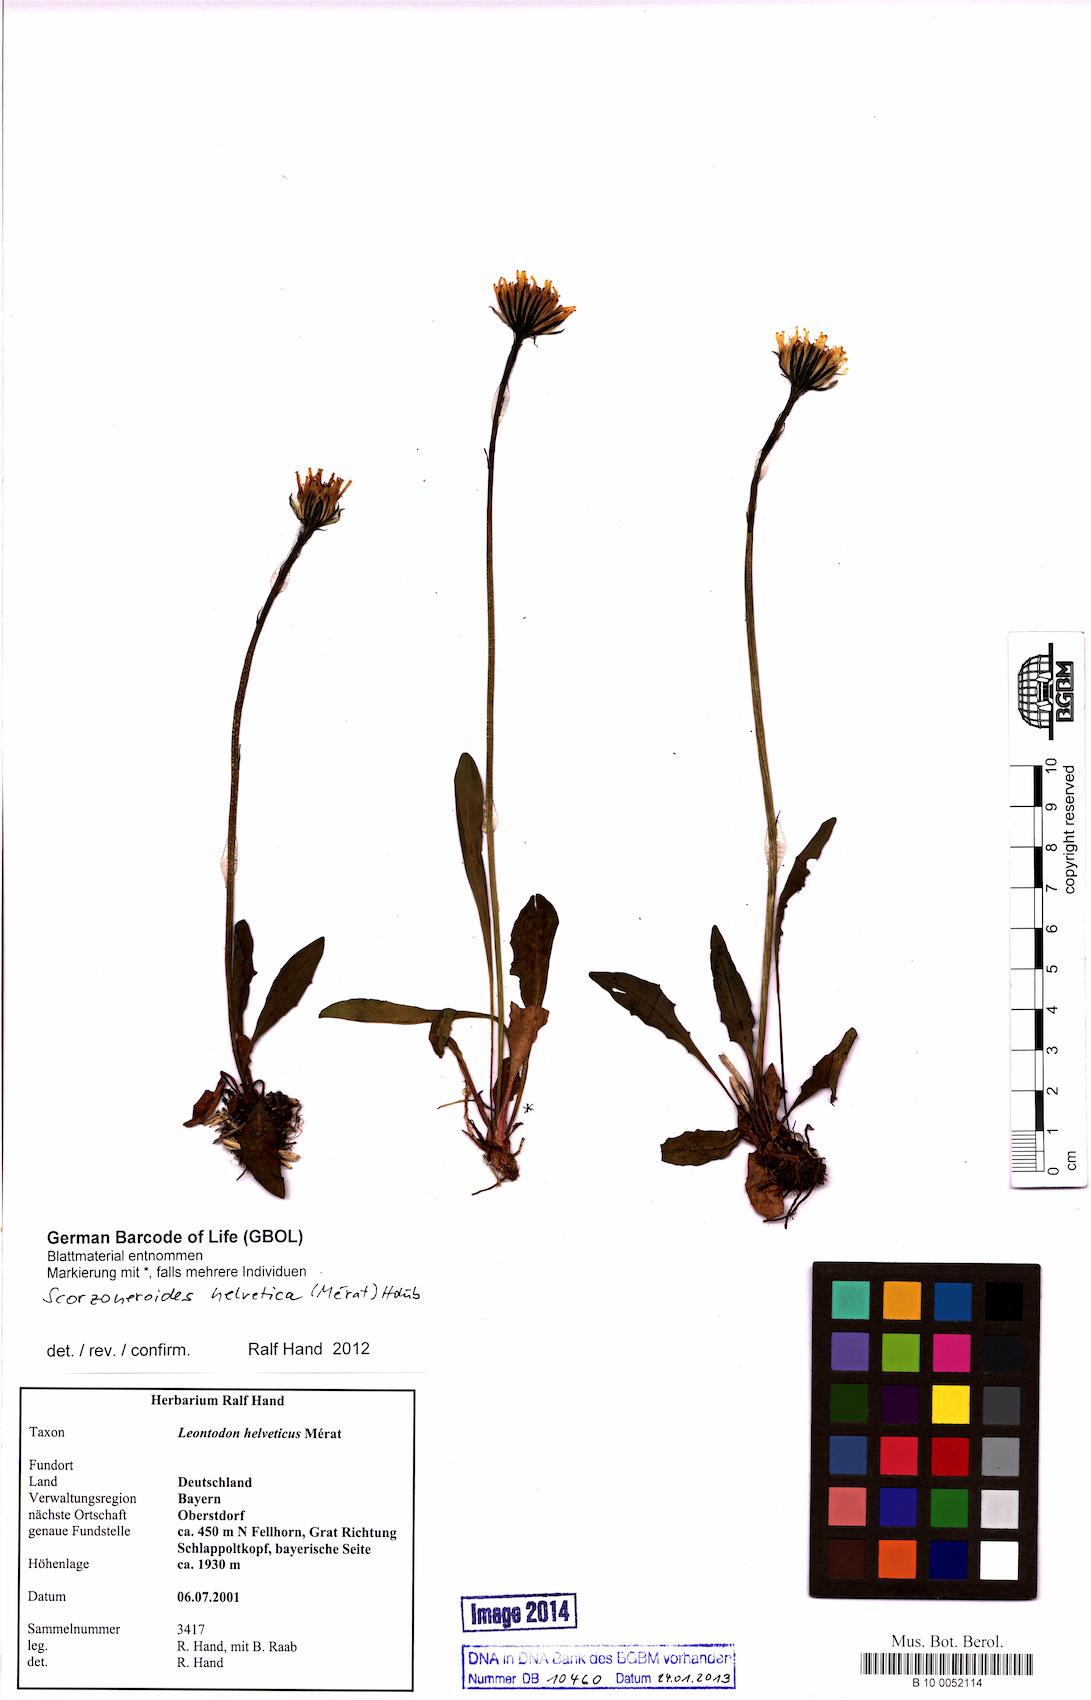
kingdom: Plantae
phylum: Tracheophyta
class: Magnoliopsida
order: Asterales
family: Asteraceae
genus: Scorzoneroides
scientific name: Scorzoneroides helvetica
